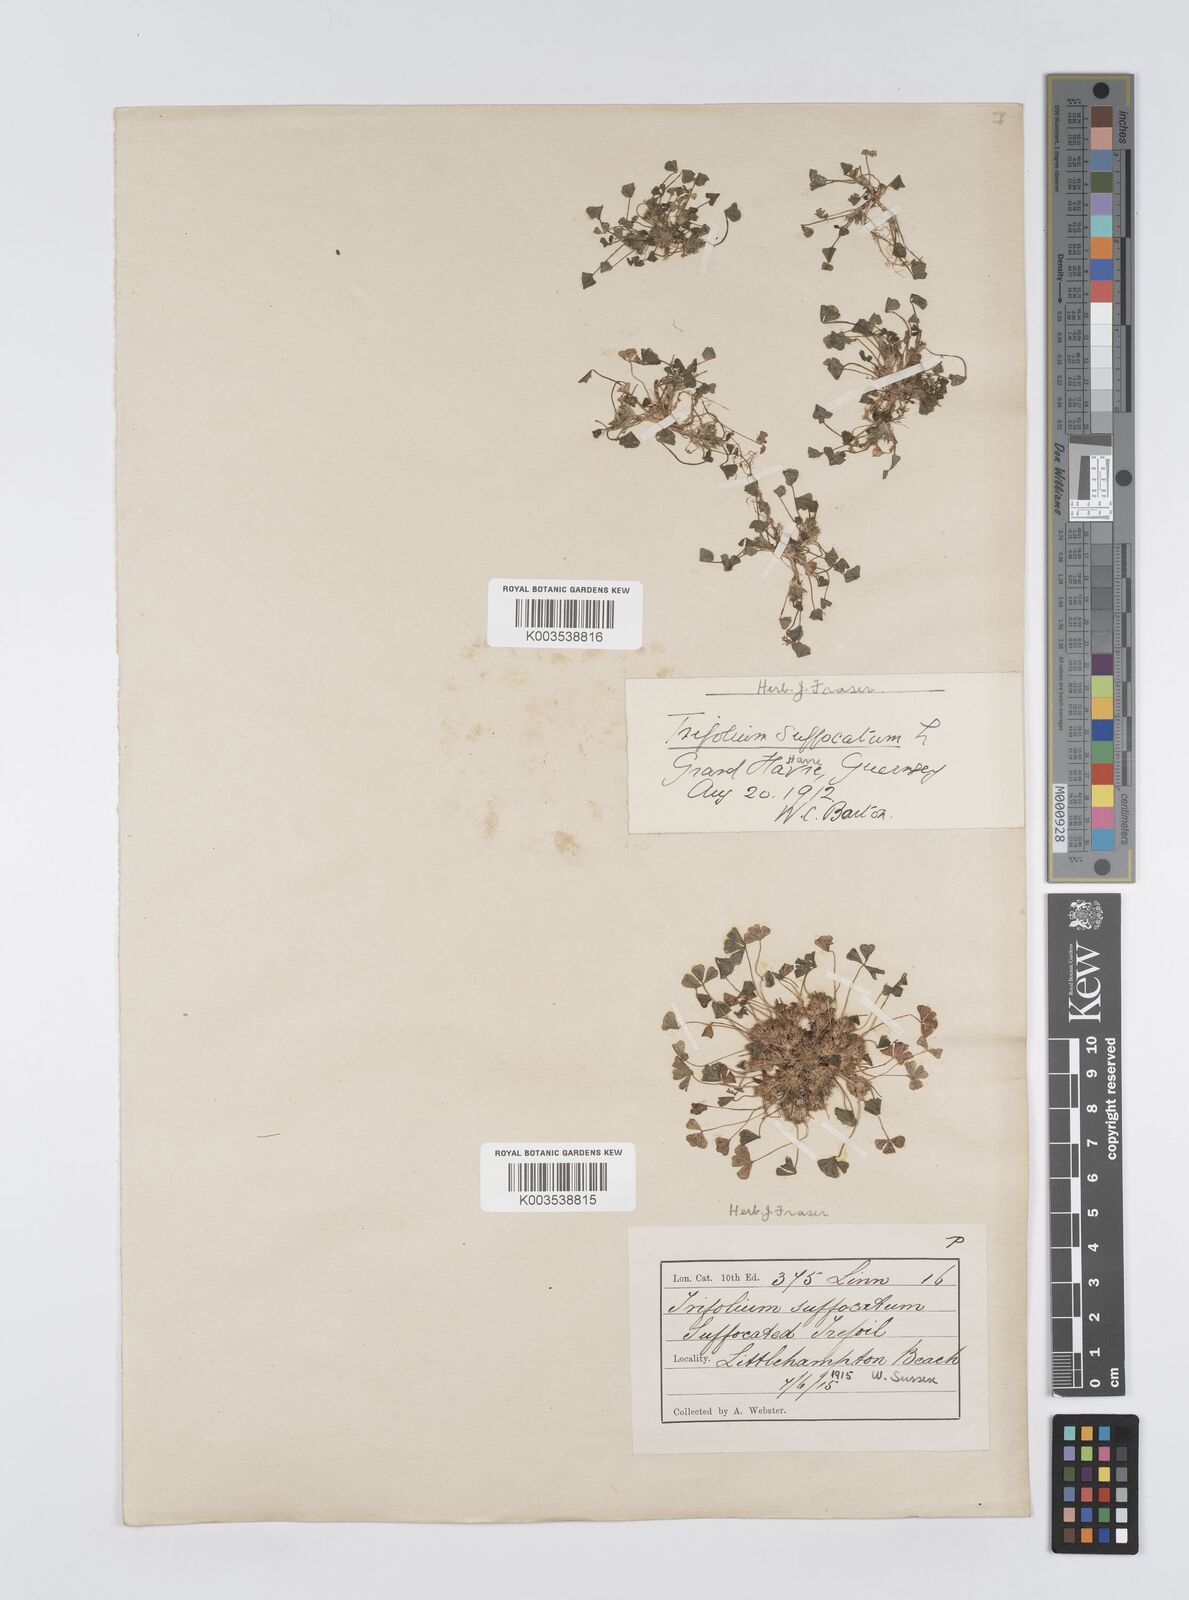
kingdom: Plantae
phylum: Tracheophyta
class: Magnoliopsida
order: Fabales
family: Fabaceae
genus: Trifolium
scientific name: Trifolium suffocatum
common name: Suffocated clover
